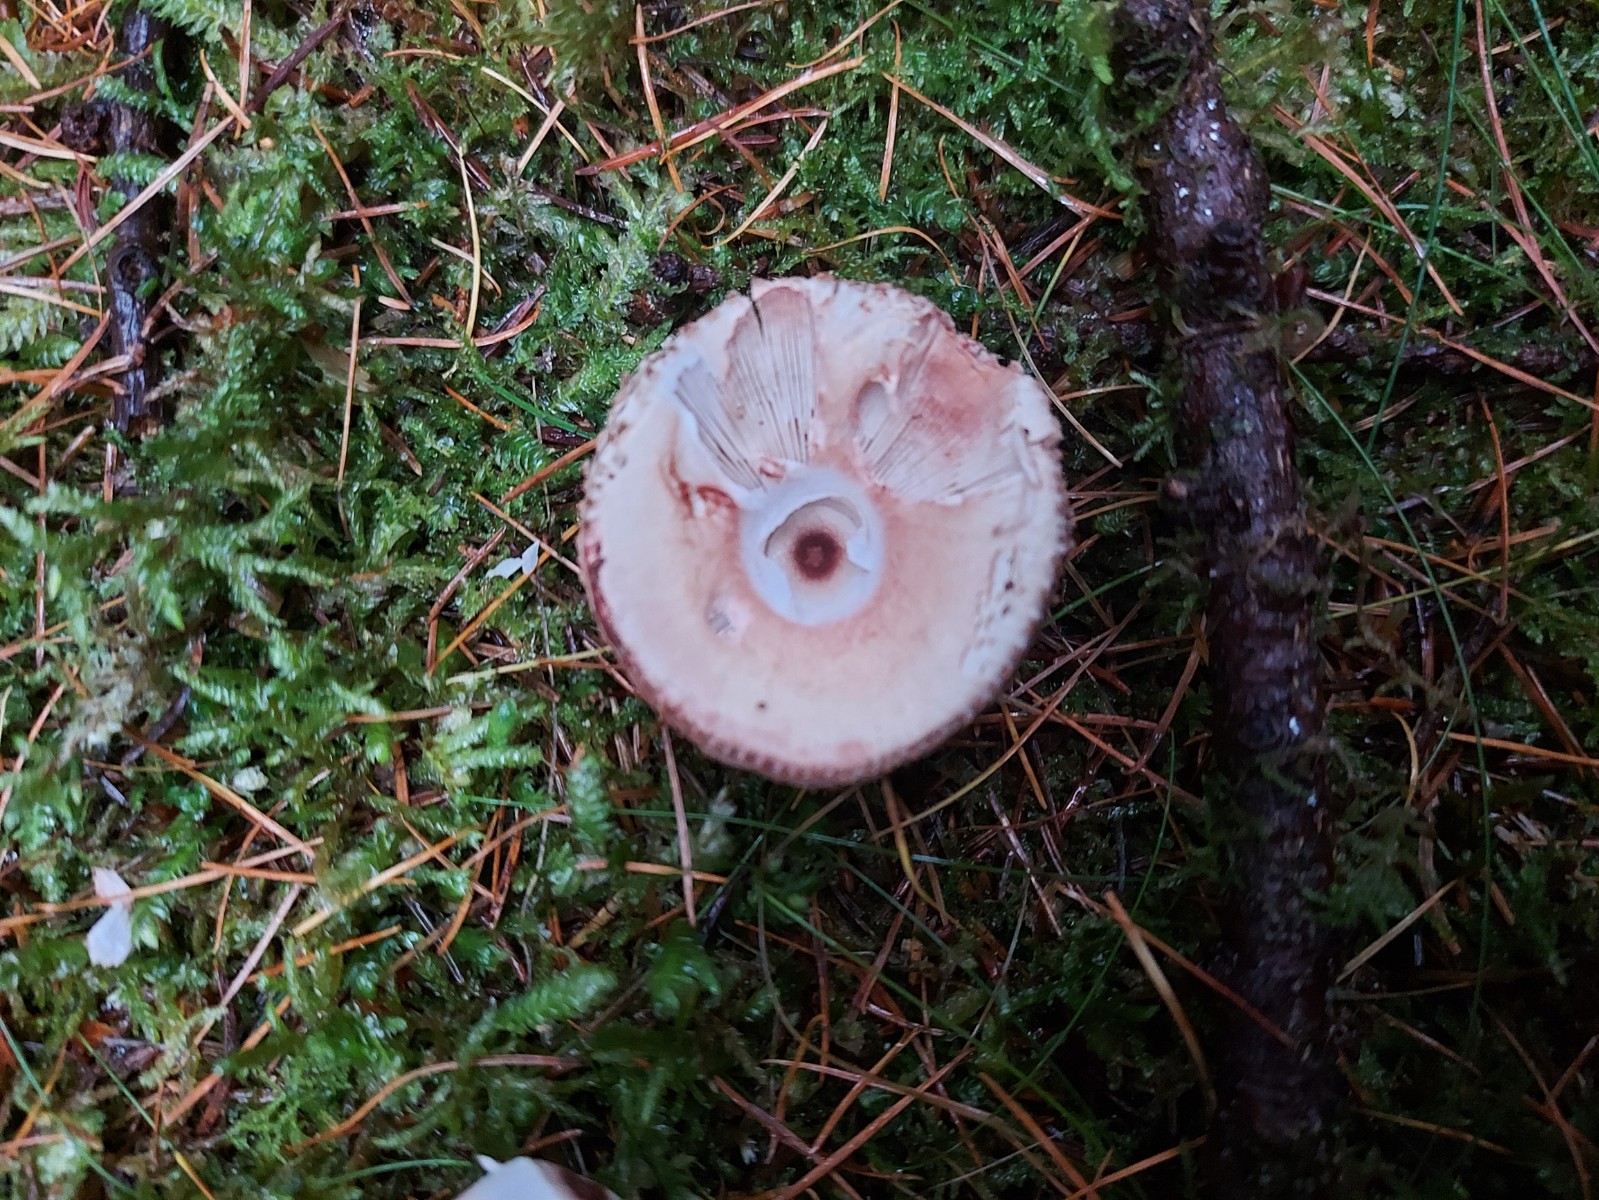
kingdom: Fungi
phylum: Basidiomycota
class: Agaricomycetes
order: Agaricales
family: Amanitaceae
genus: Amanita
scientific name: Amanita rubescens
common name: rødmende fluesvamp
